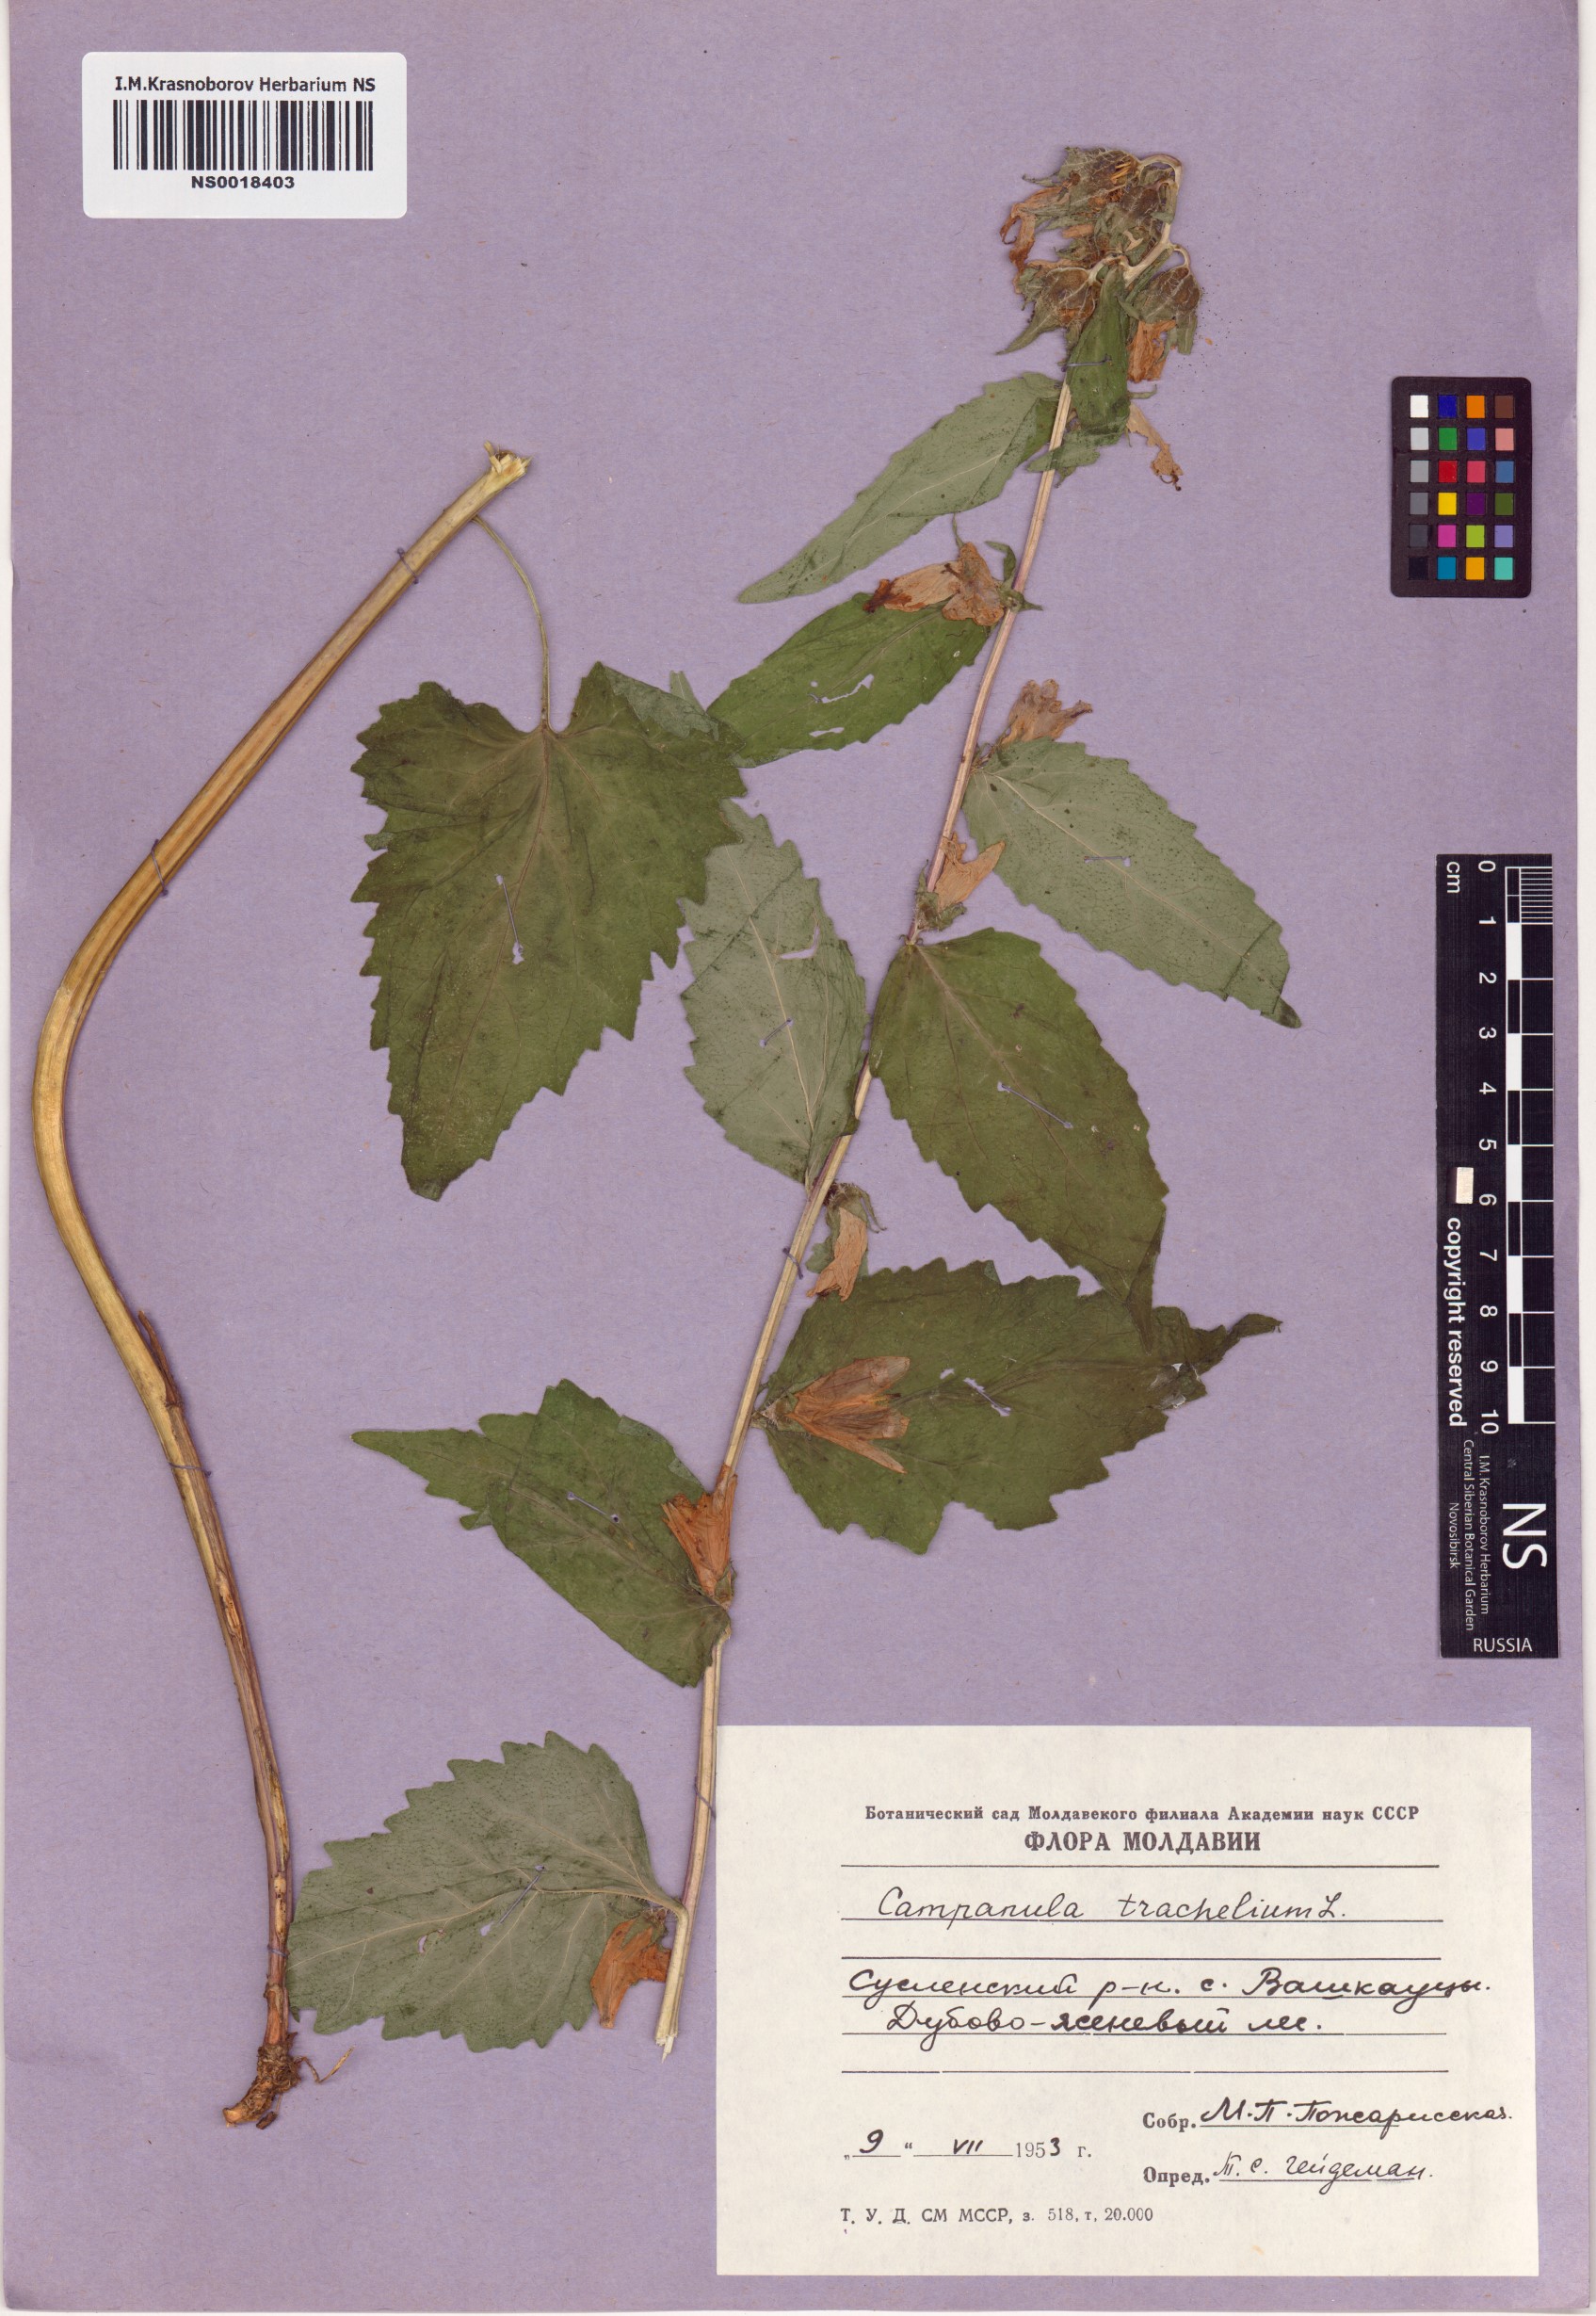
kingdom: Plantae
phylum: Tracheophyta
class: Magnoliopsida
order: Asterales
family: Campanulaceae
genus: Campanula
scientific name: Campanula trachelium
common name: Nettle-leaved bellflower
